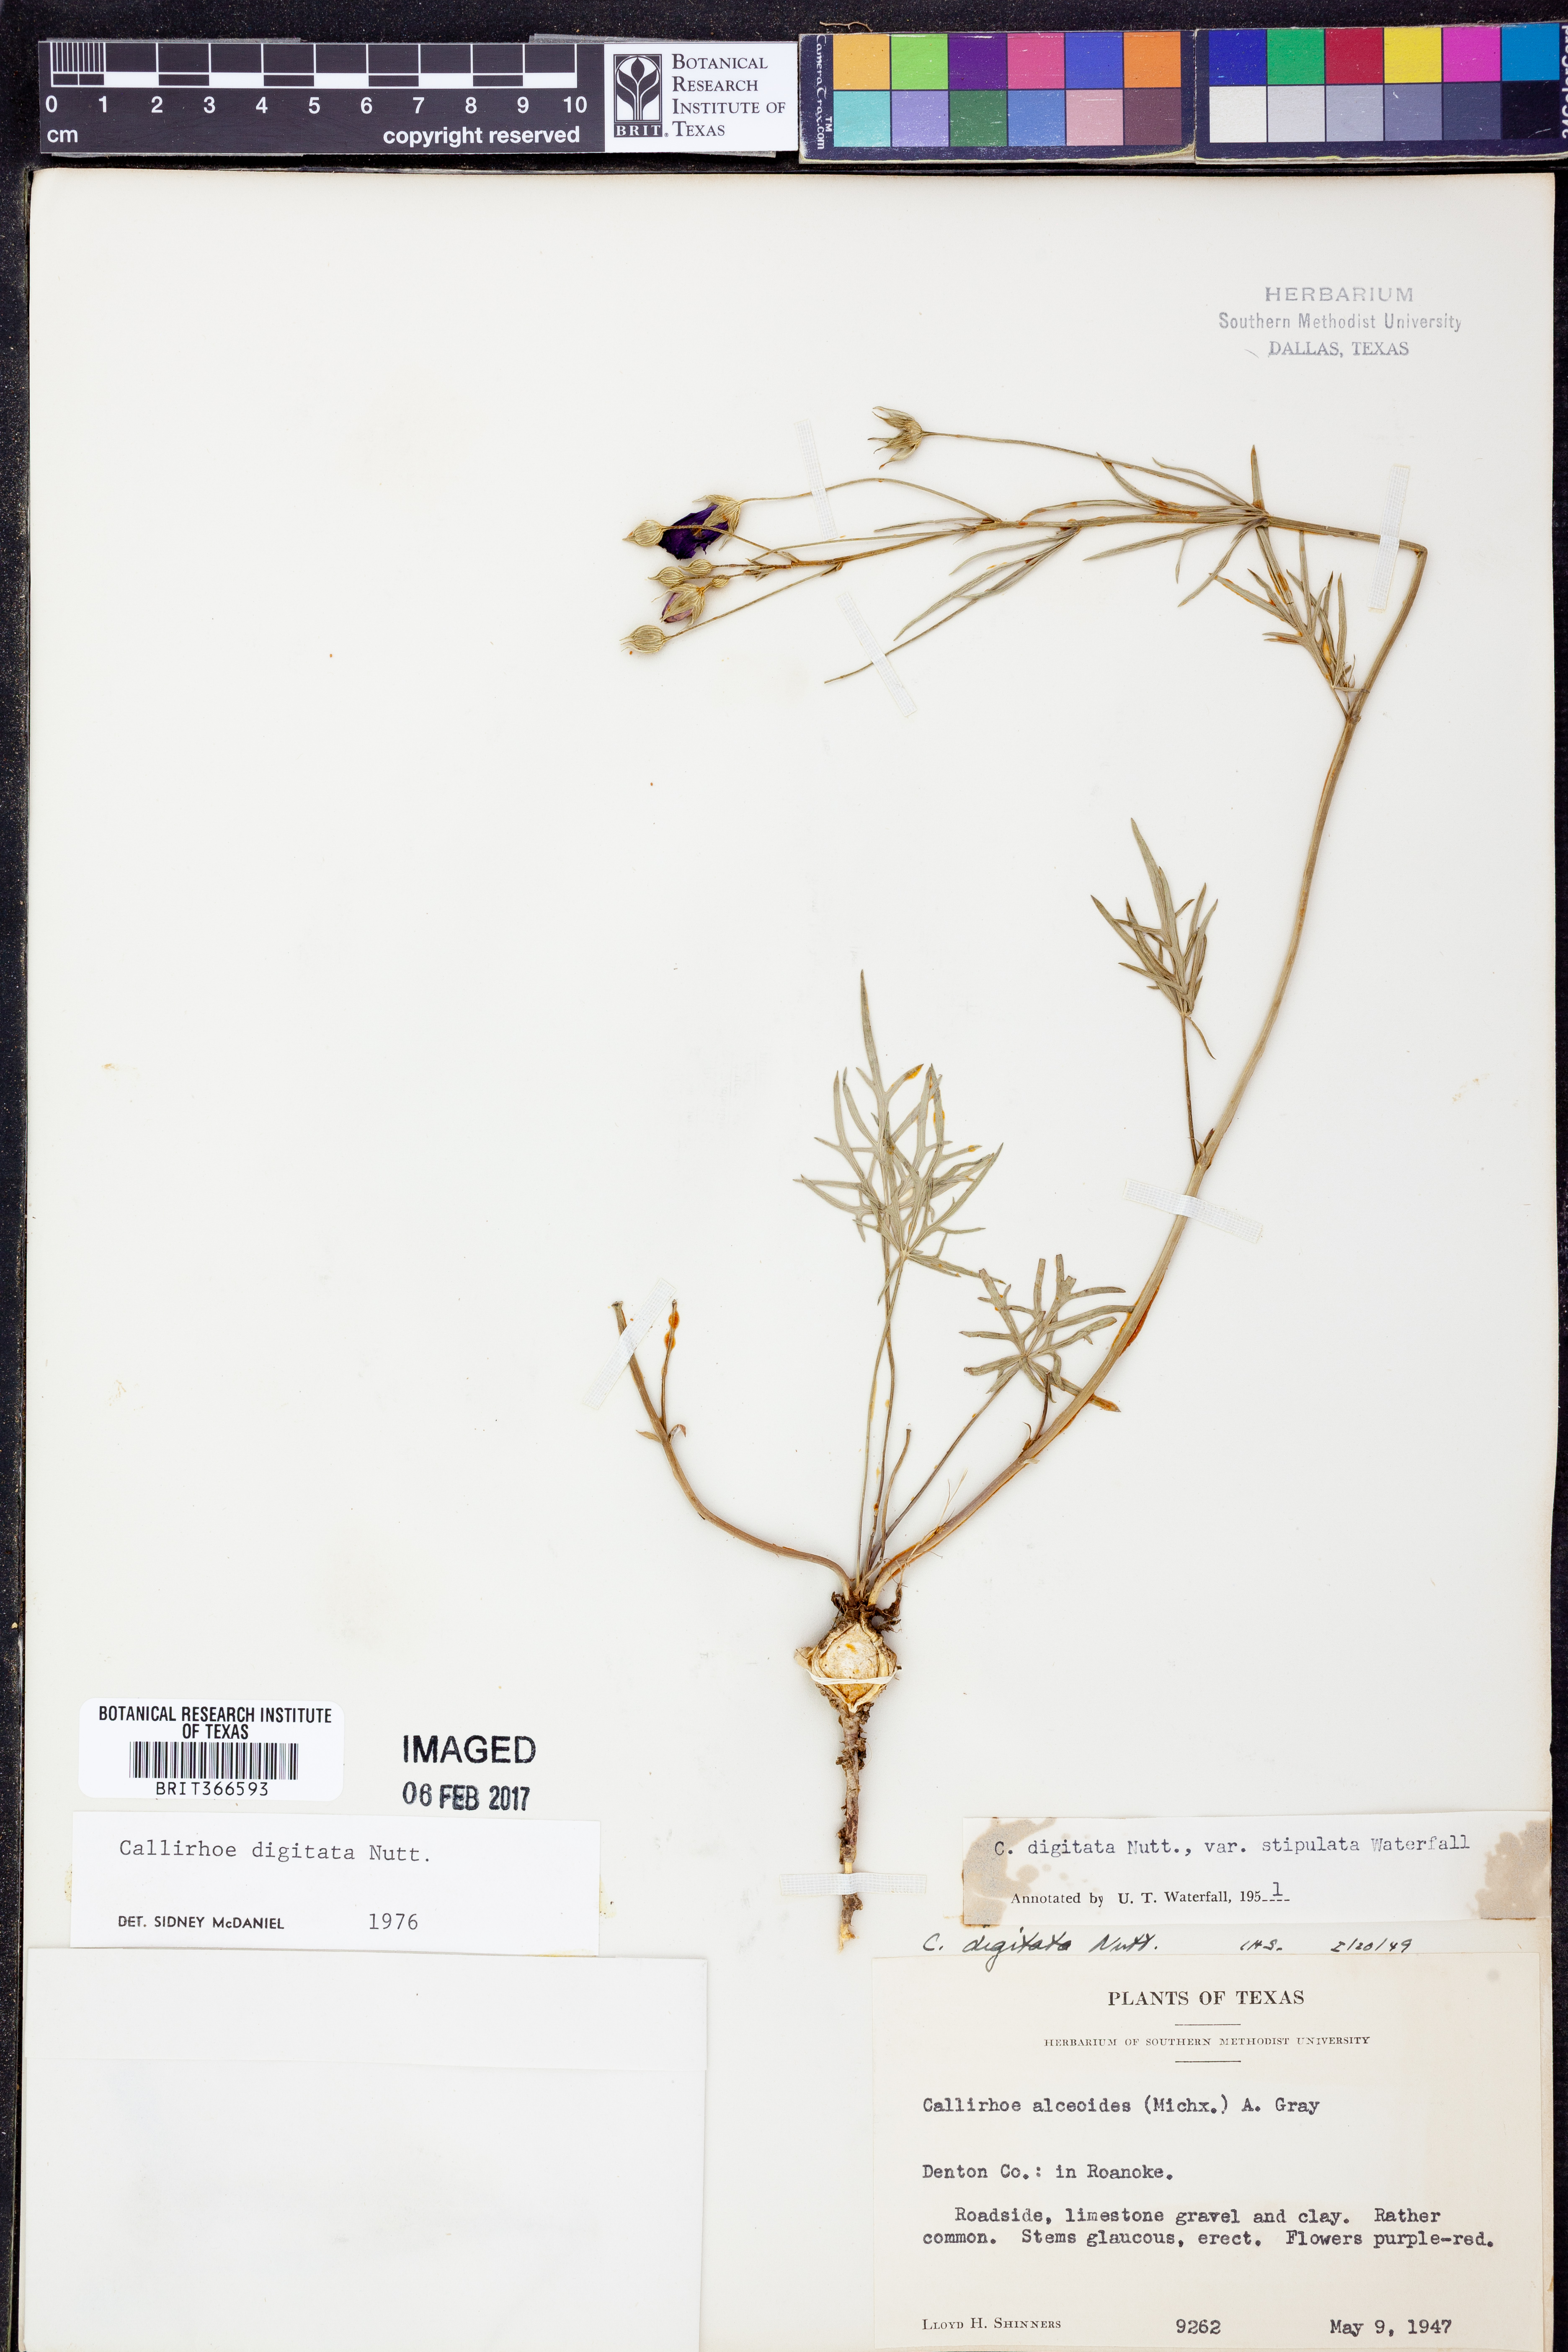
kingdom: Plantae
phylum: Tracheophyta
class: Magnoliopsida
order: Malvales
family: Malvaceae
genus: Callirhoe
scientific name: Callirhoe digitata
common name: Finger poppy-mallow
